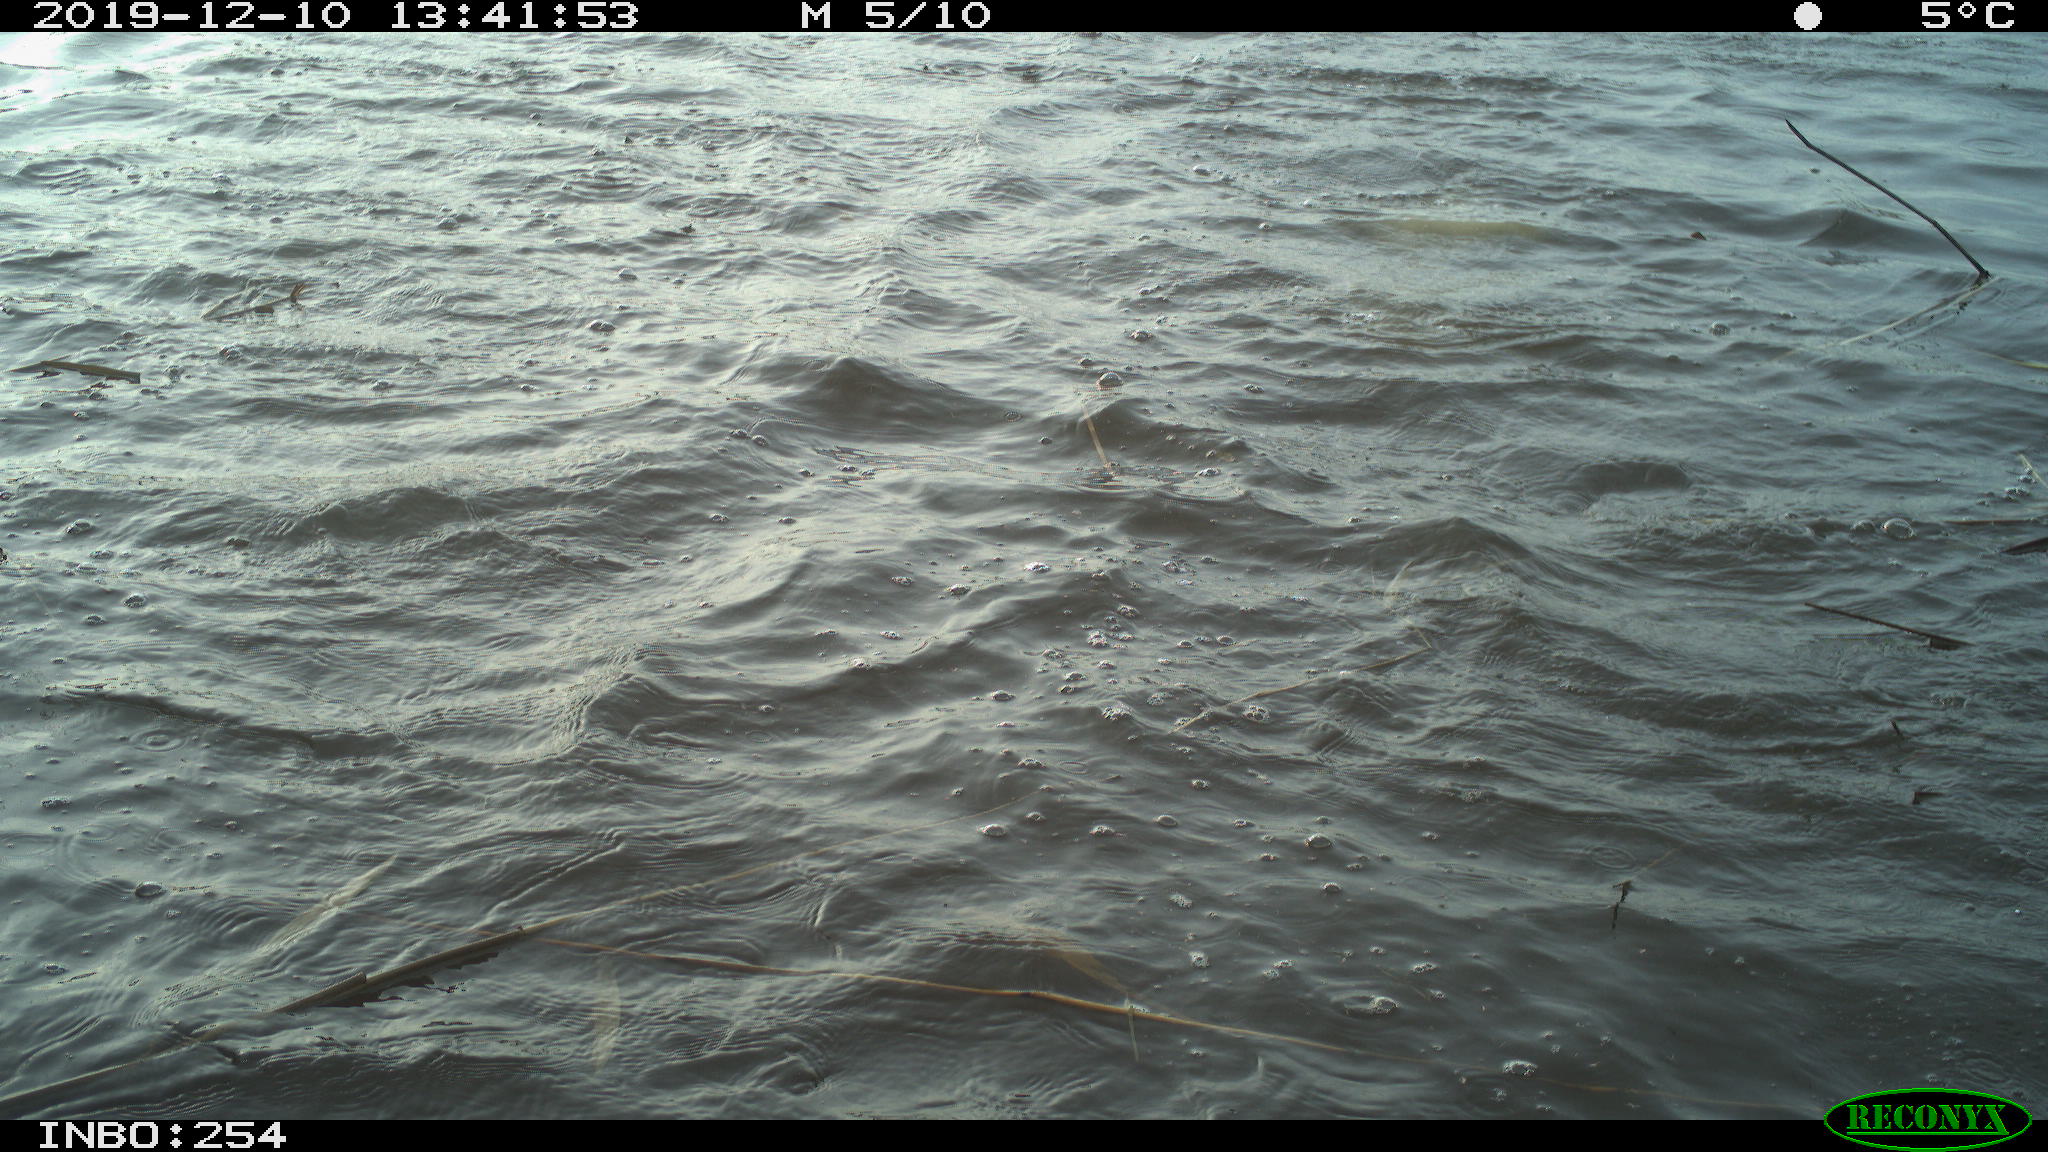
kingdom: Animalia
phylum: Chordata
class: Aves
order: Suliformes
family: Phalacrocoracidae
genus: Phalacrocorax
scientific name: Phalacrocorax carbo
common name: Great cormorant
